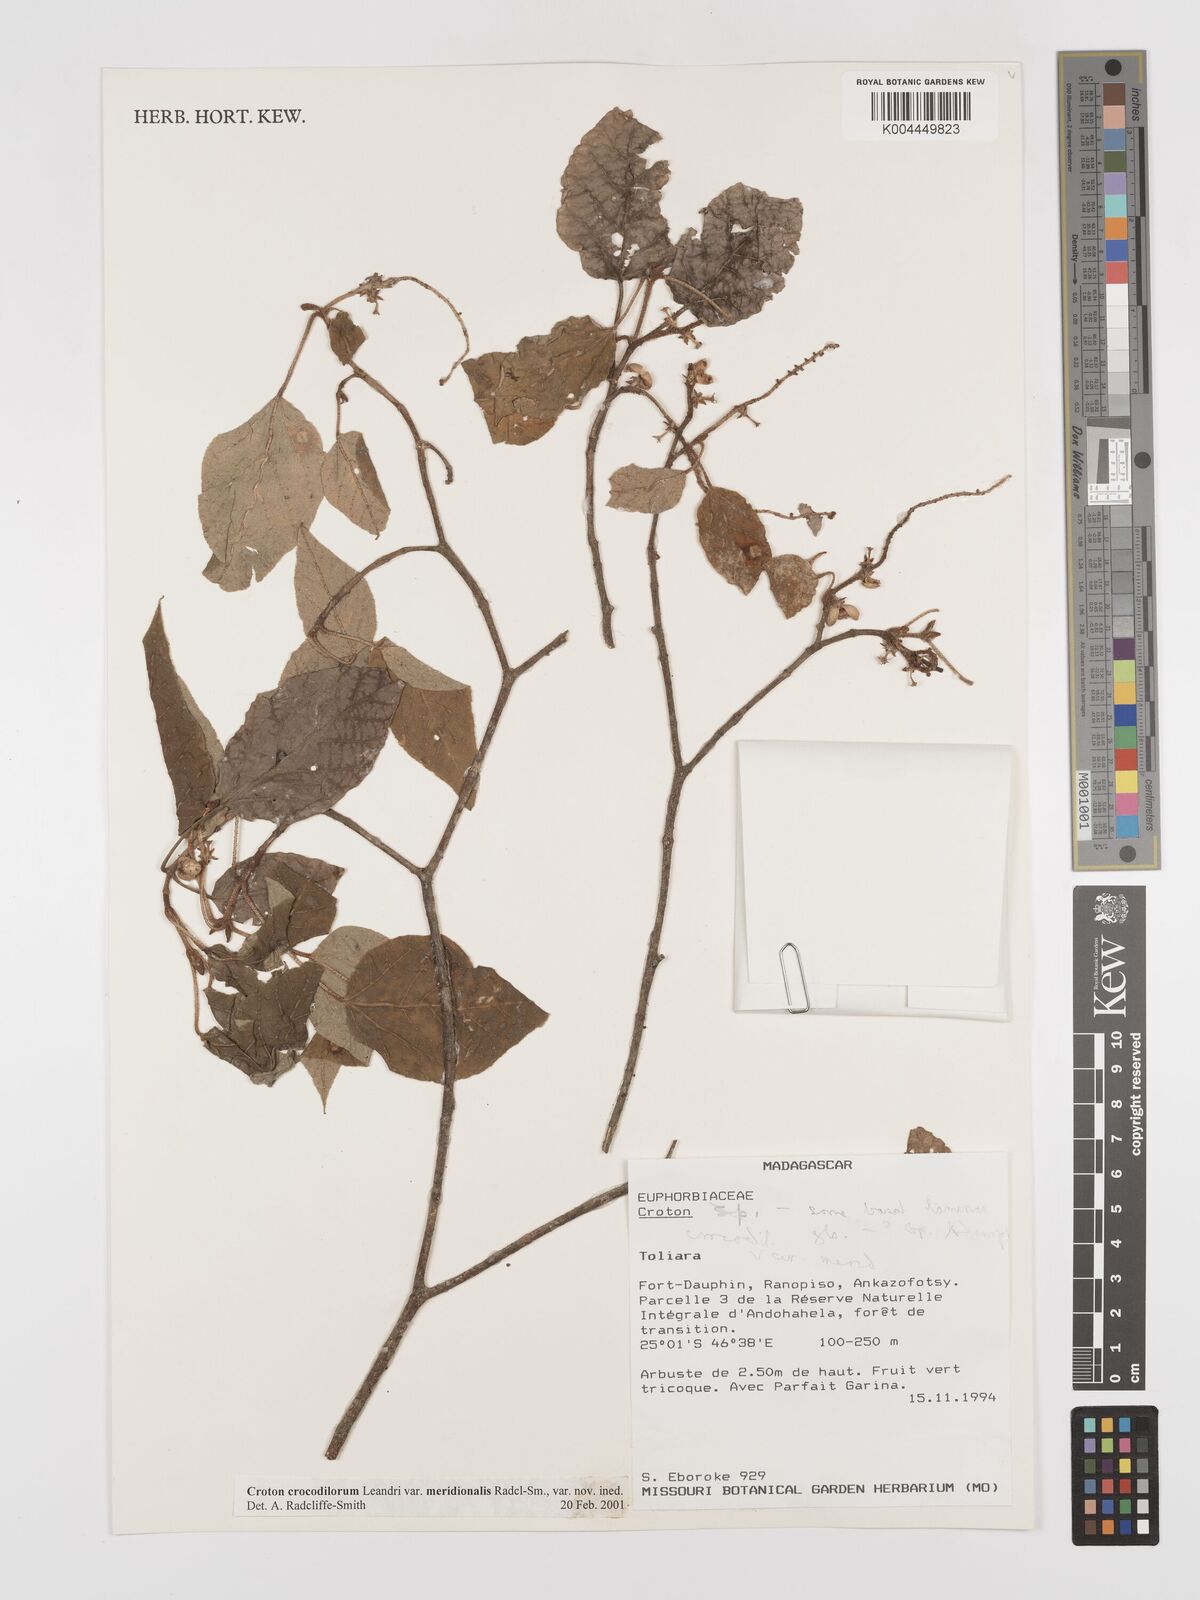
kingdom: Plantae
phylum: Tracheophyta
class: Magnoliopsida
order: Malpighiales
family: Euphorbiaceae
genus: Croton
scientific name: Croton crocodilorum
